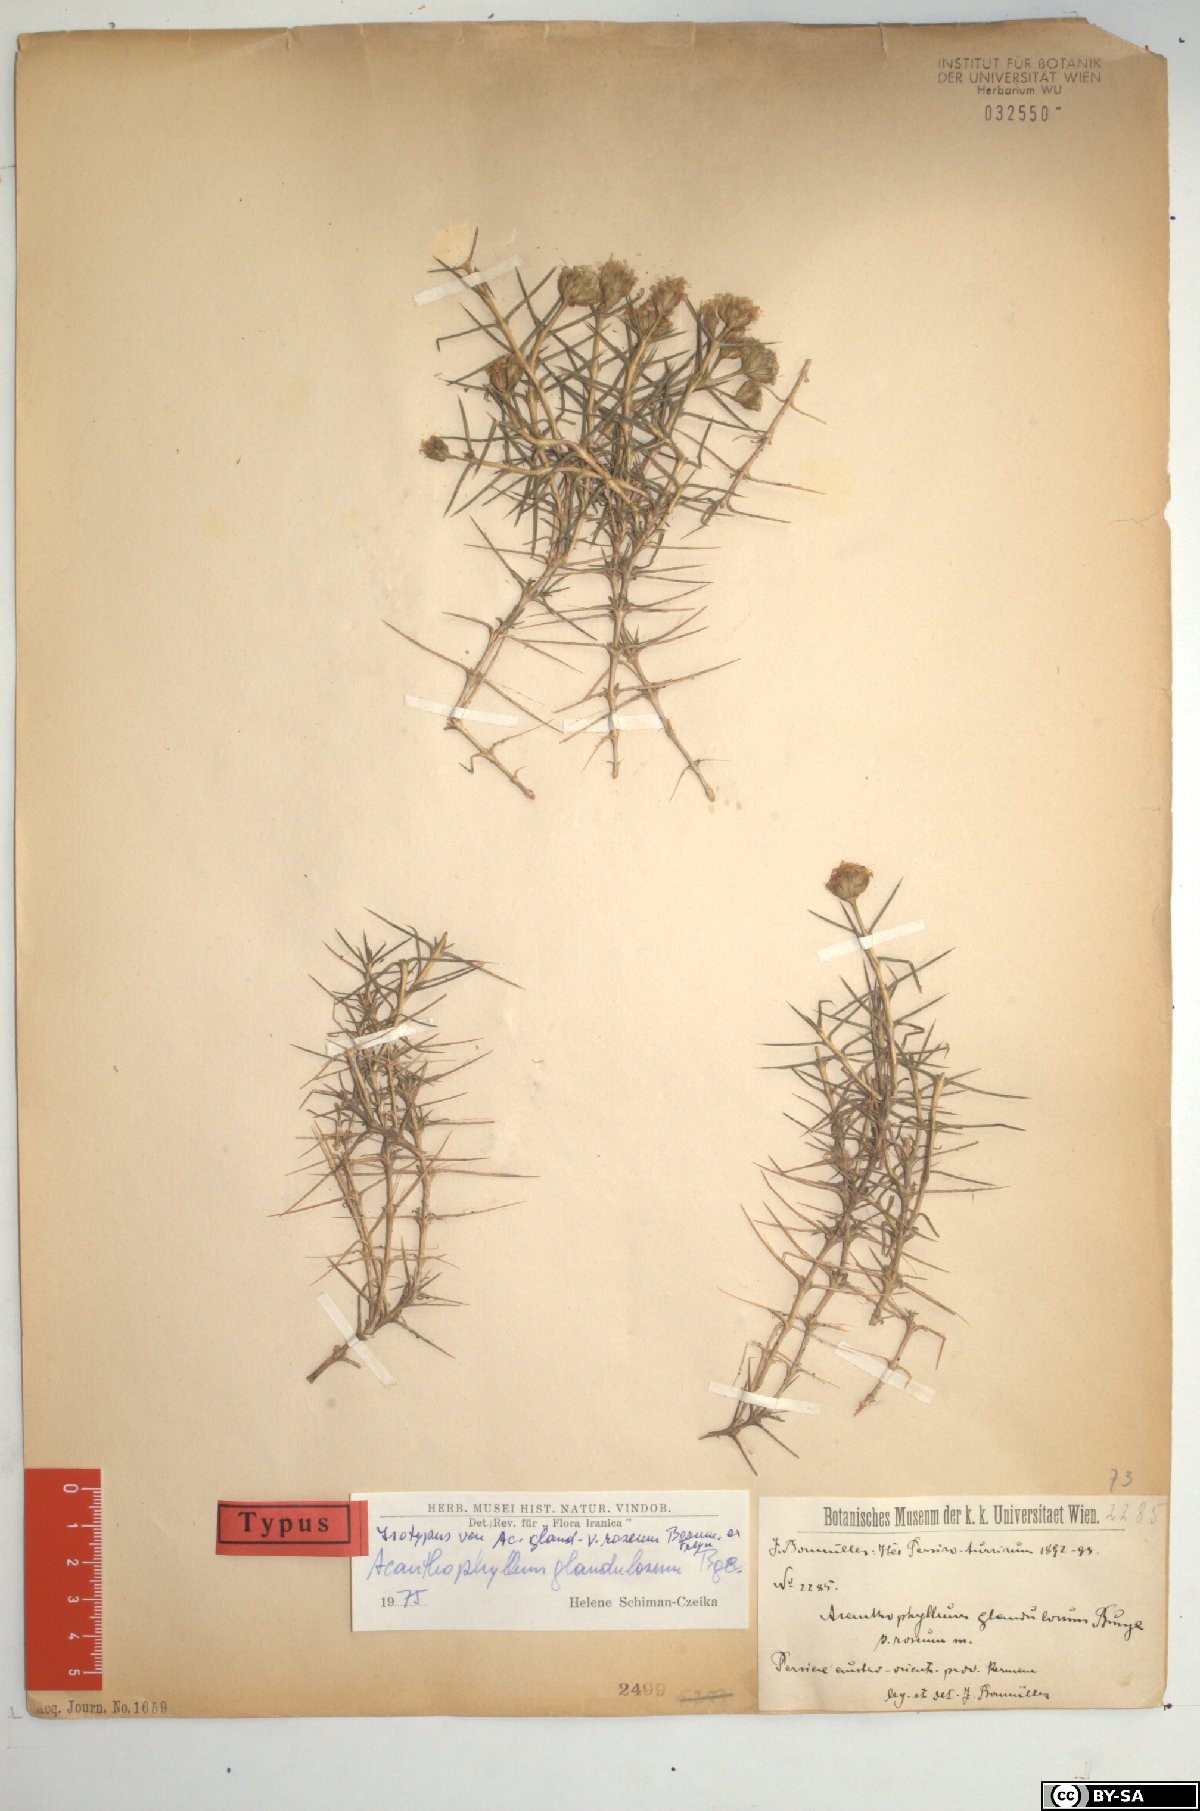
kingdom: Plantae
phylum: Tracheophyta
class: Magnoliopsida
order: Caryophyllales
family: Caryophyllaceae
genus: Acanthophyllum
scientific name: Acanthophyllum glandulosum
